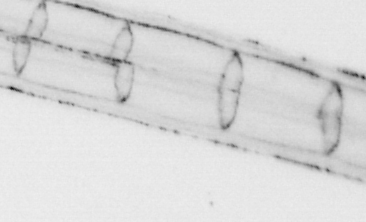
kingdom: Animalia
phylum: Chordata
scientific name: Chordata
